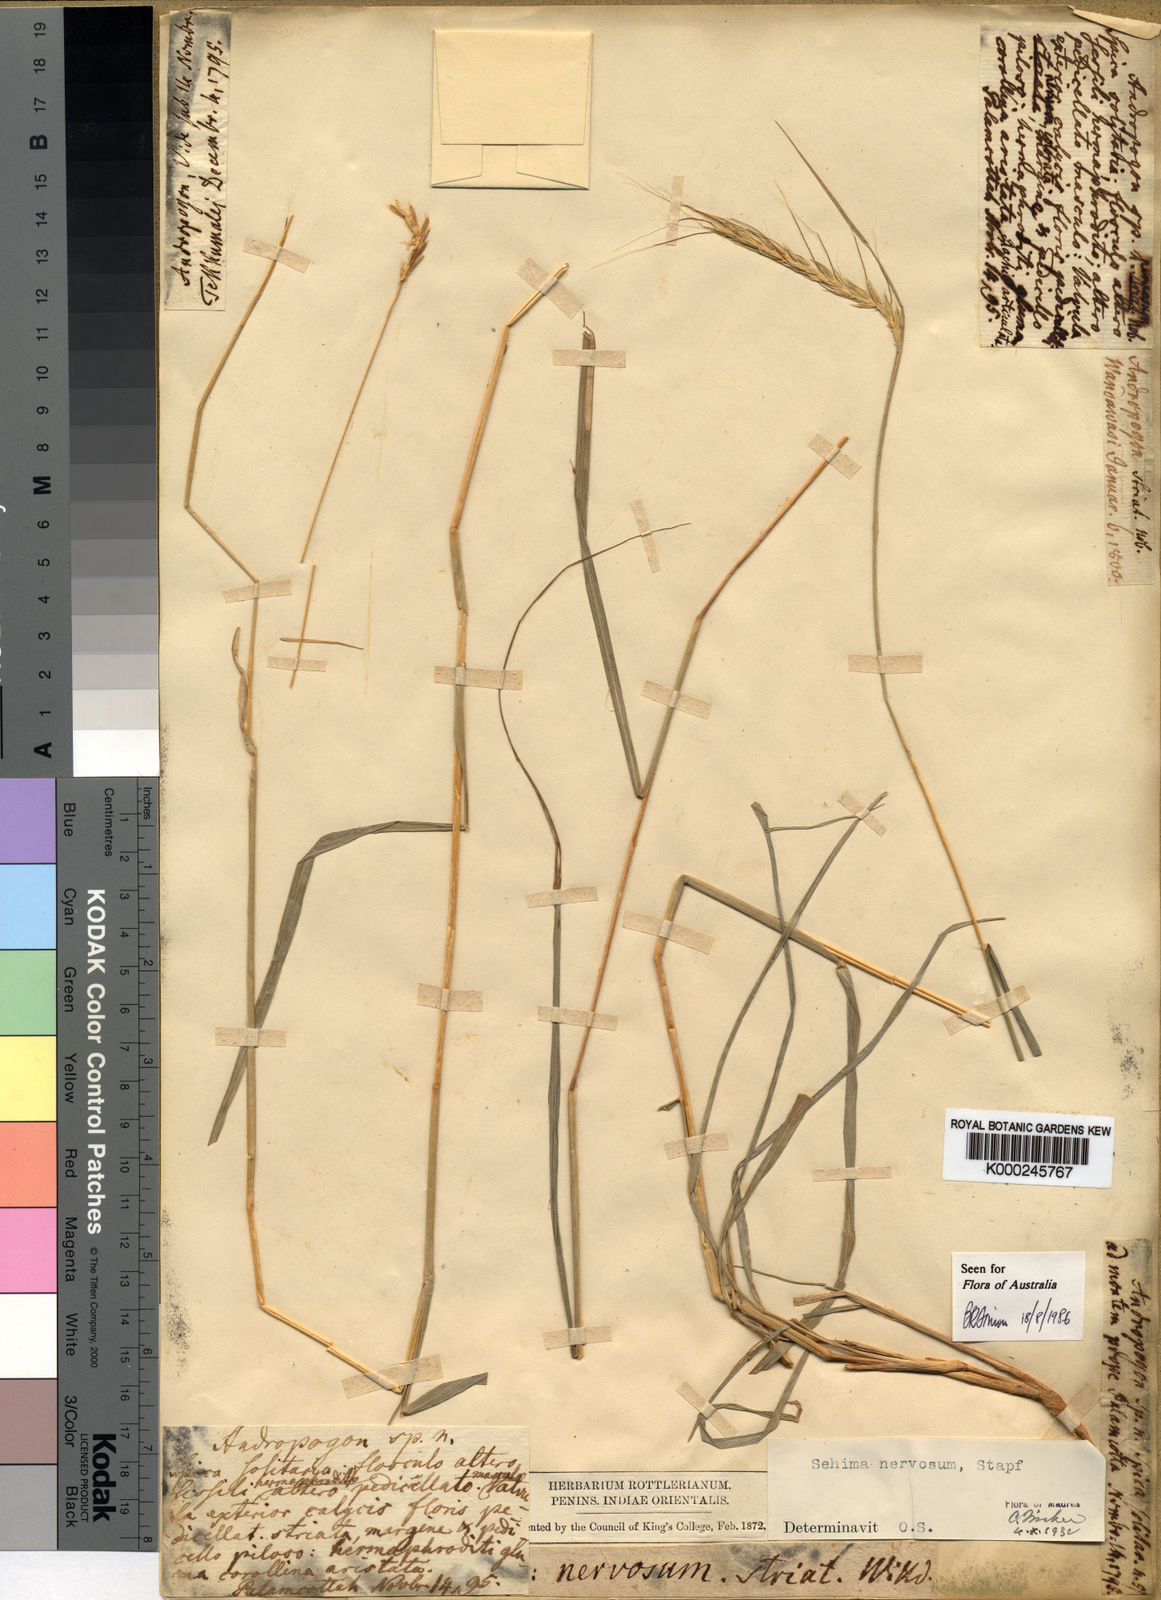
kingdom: Plantae
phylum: Tracheophyta
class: Liliopsida
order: Poales
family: Poaceae
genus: Sehima
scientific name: Sehima nervosa
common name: Rat-tail grass
